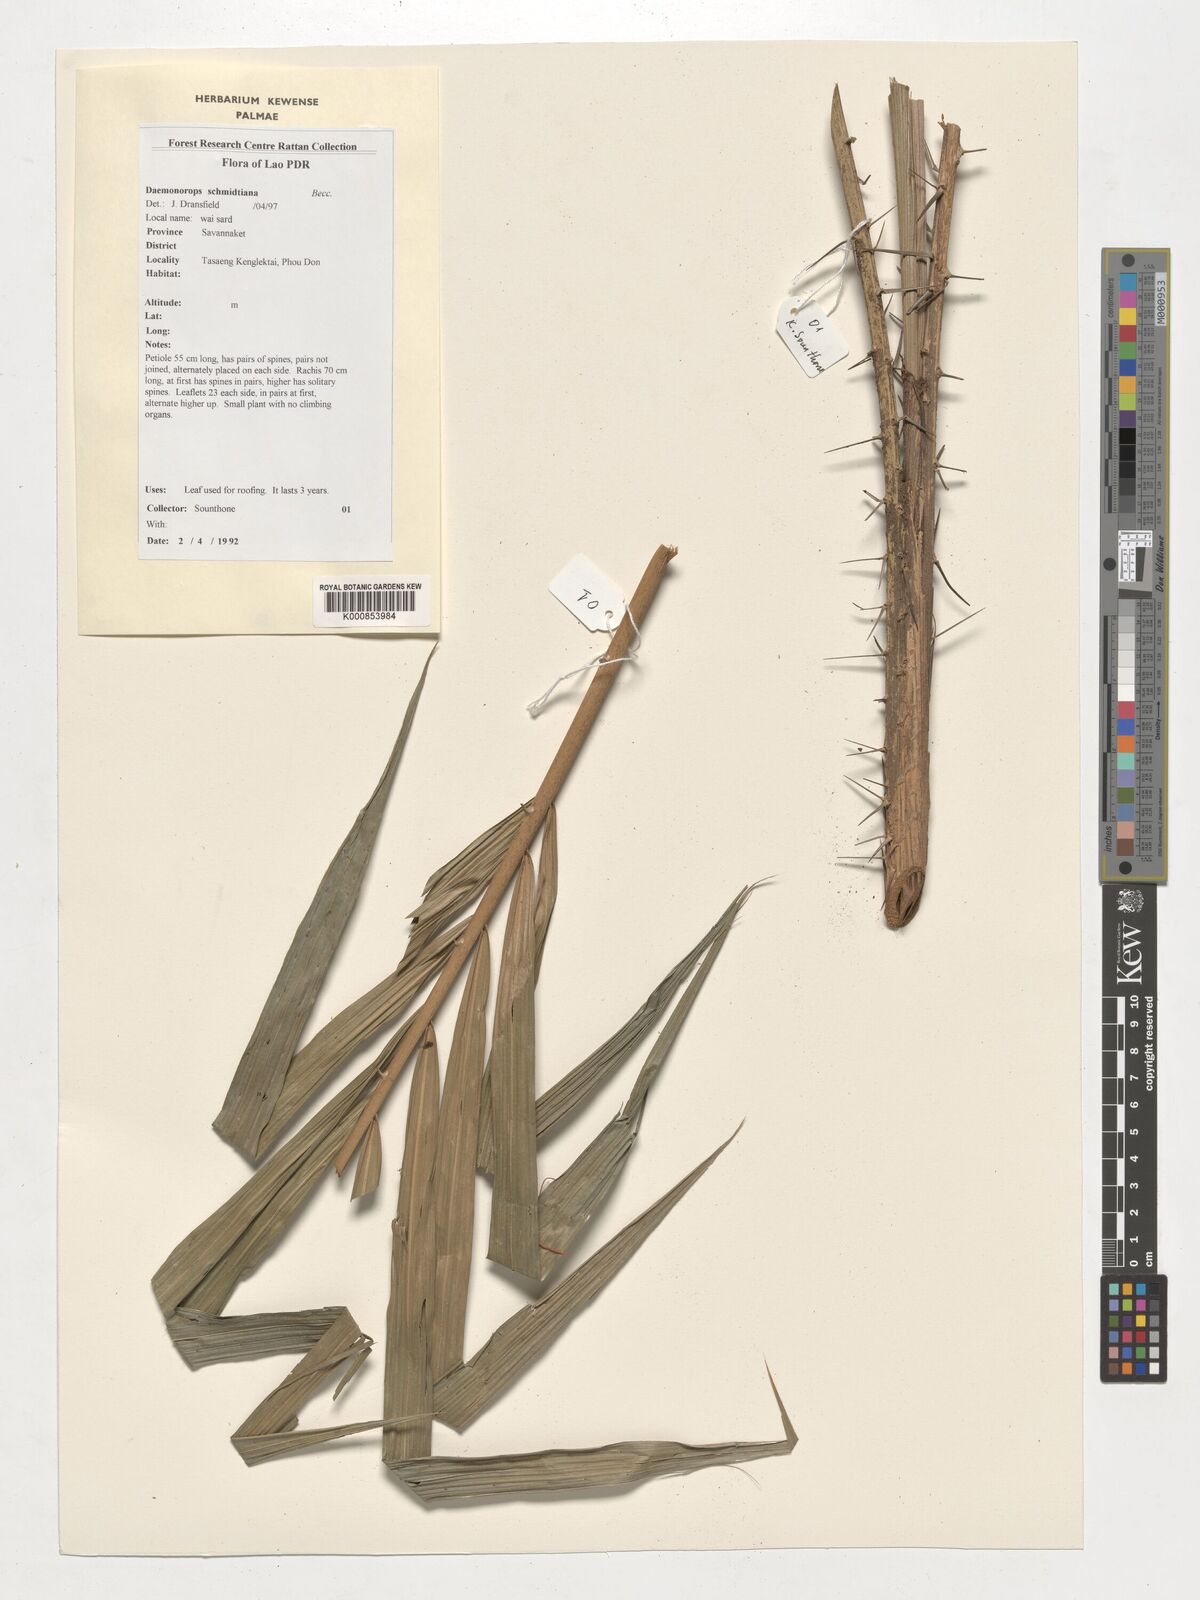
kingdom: Plantae
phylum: Tracheophyta
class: Liliopsida
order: Arecales
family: Arecaceae
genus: Daemonorops
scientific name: Daemonorops
